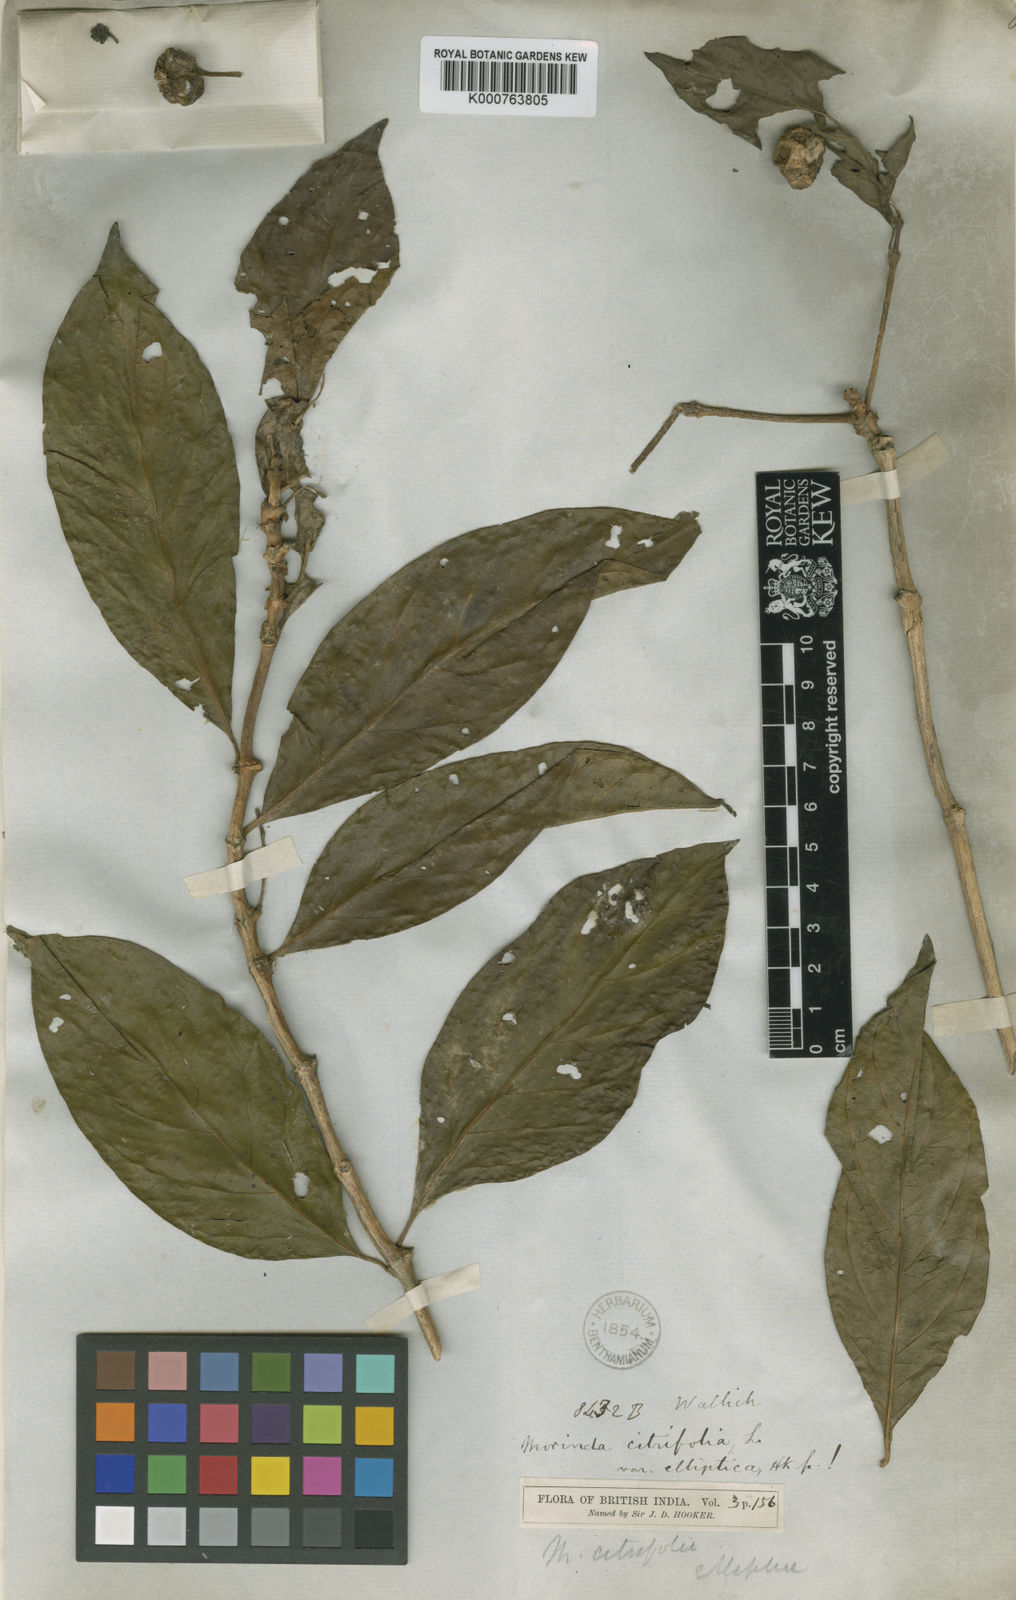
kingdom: Plantae
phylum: Tracheophyta
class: Magnoliopsida
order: Gentianales
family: Rubiaceae
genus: Morinda
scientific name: Morinda elliptica
